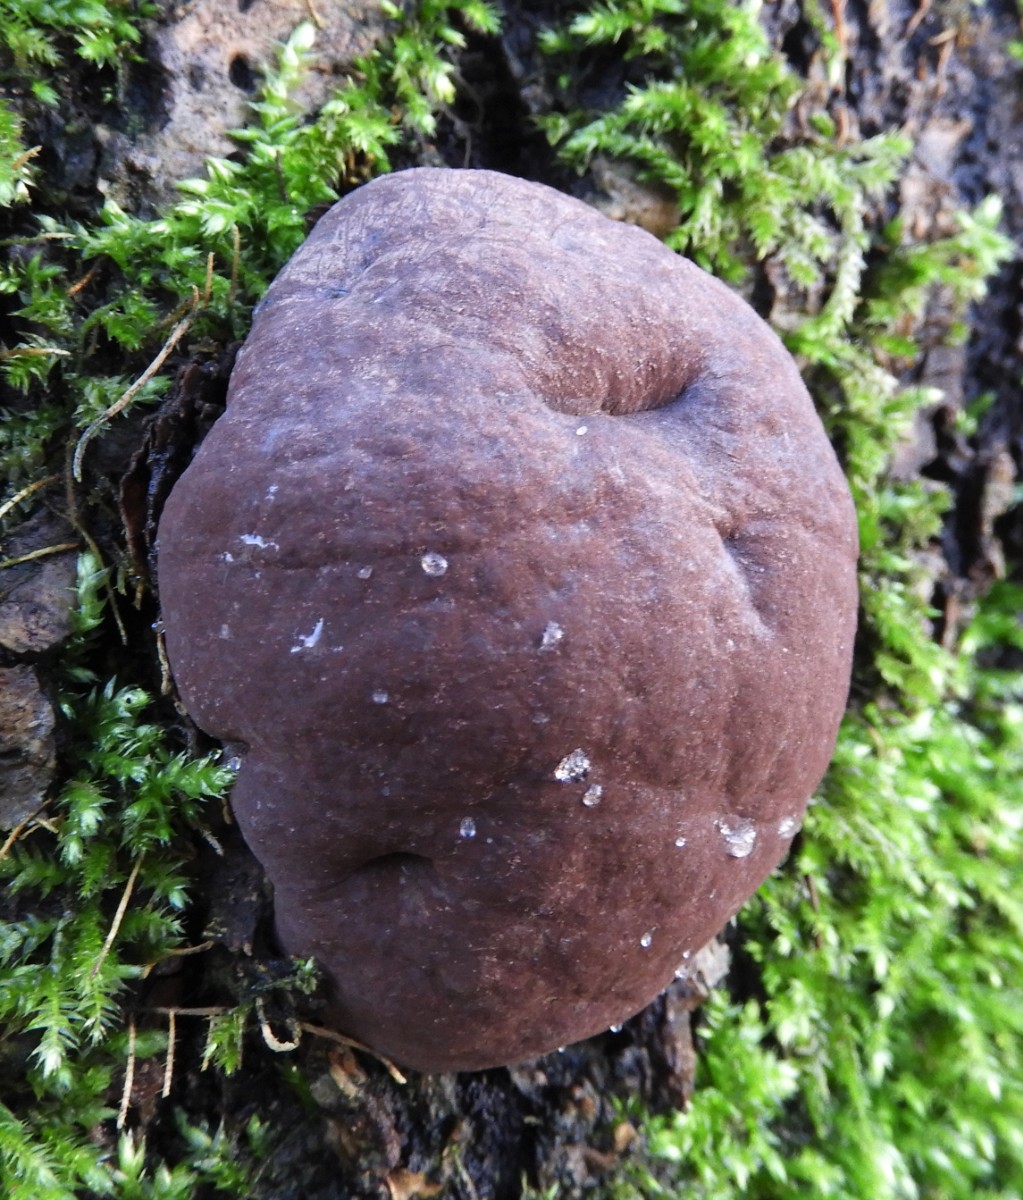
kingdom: Fungi
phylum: Ascomycota
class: Sordariomycetes
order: Xylariales
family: Hypoxylaceae
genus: Daldinia
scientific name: Daldinia concentrica
